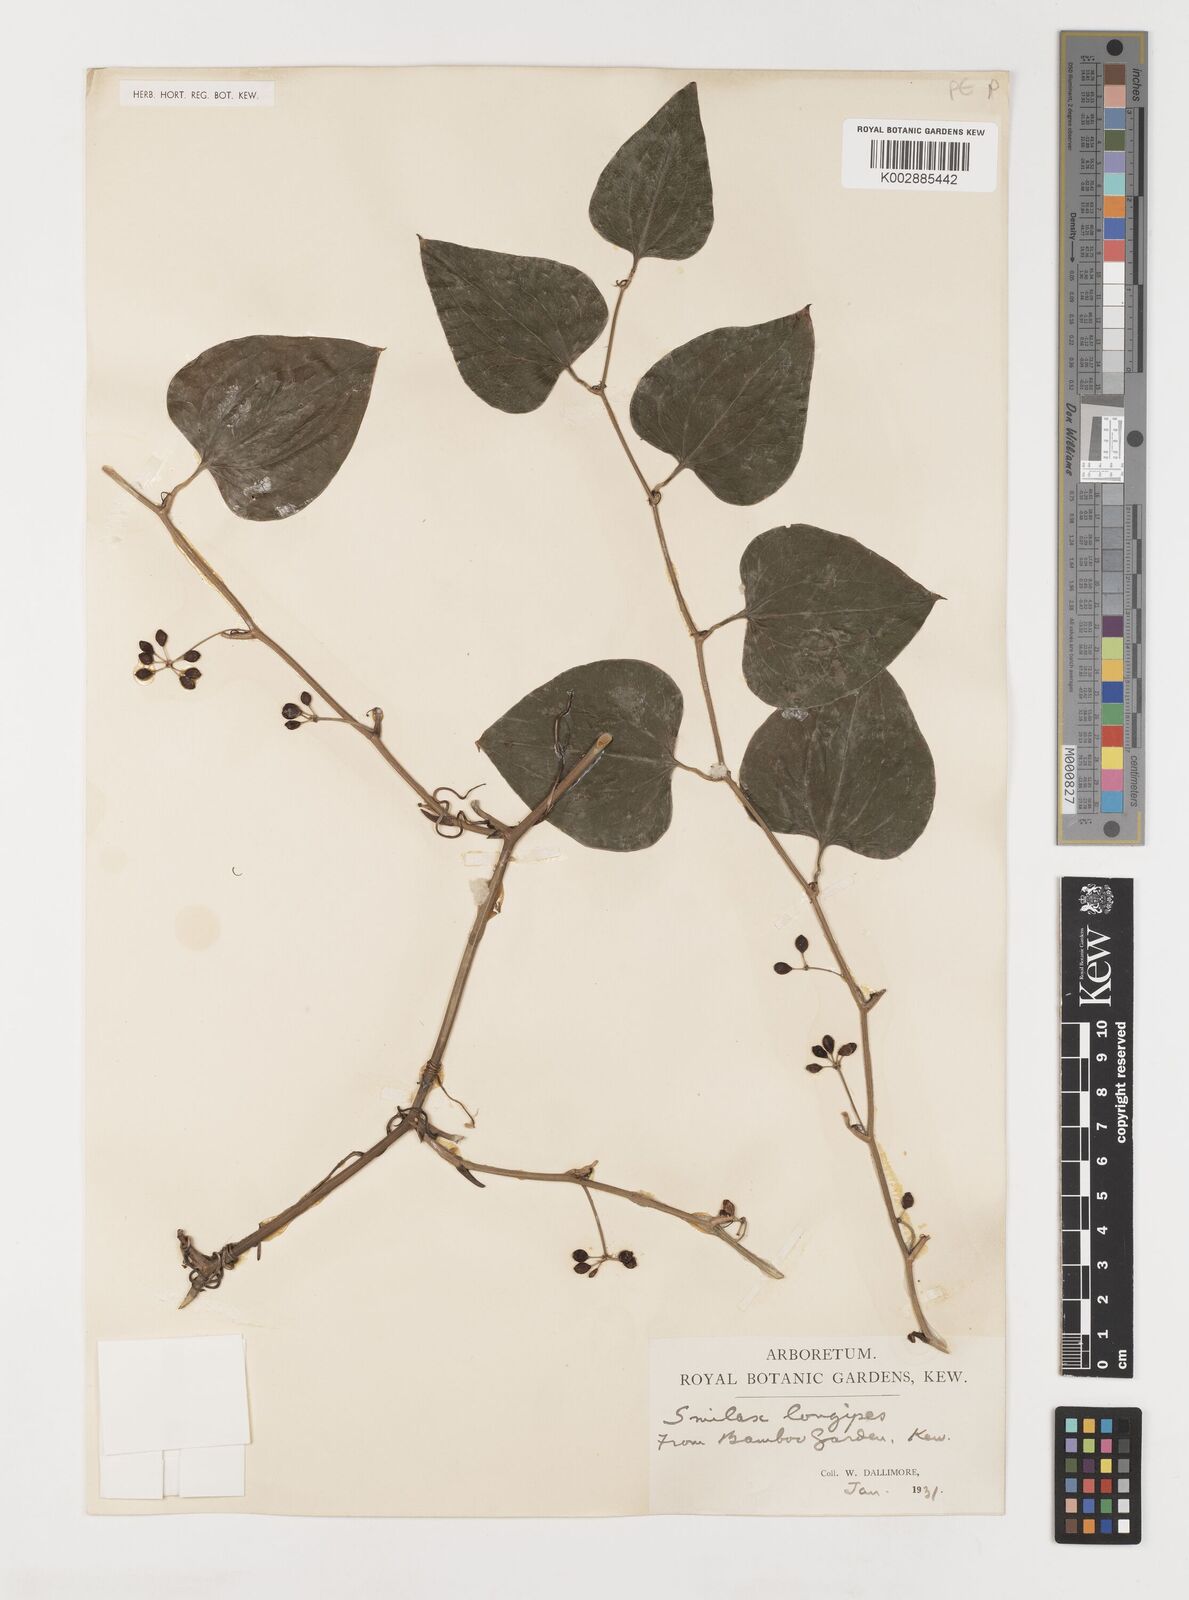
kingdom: Plantae
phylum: Tracheophyta
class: Liliopsida
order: Liliales
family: Smilacaceae
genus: Smilax
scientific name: Smilax
